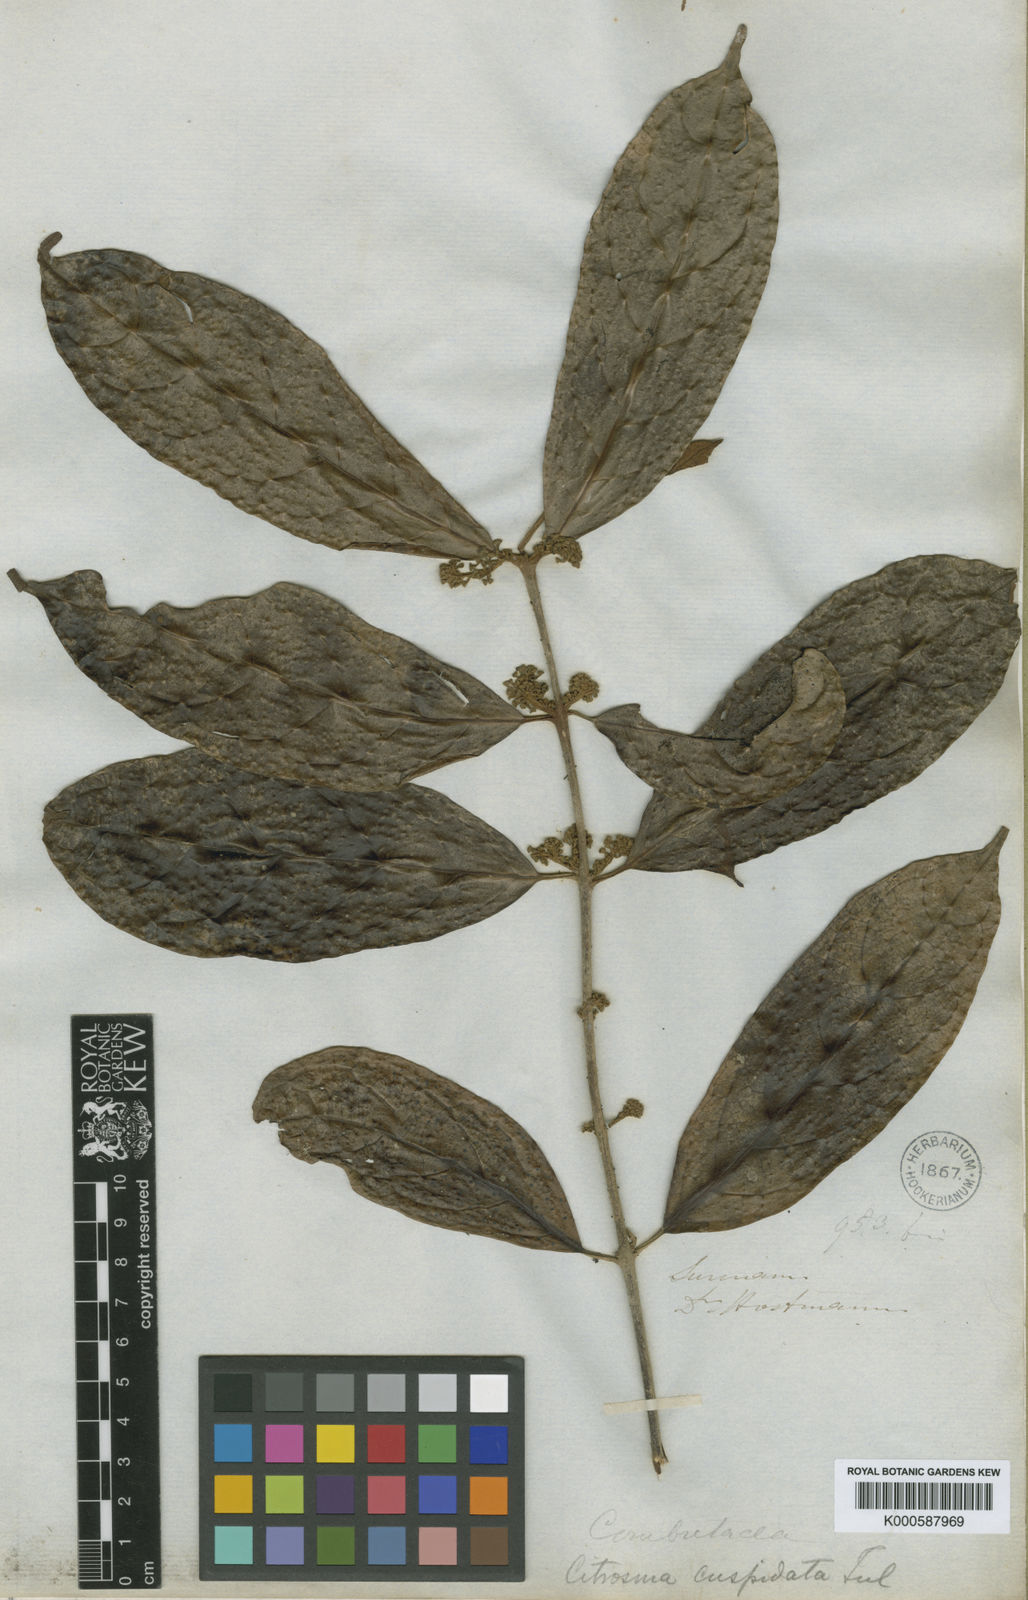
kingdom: Plantae
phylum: Tracheophyta
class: Magnoliopsida
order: Laurales
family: Siparunaceae
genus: Siparuna
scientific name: Siparuna cuspidata
